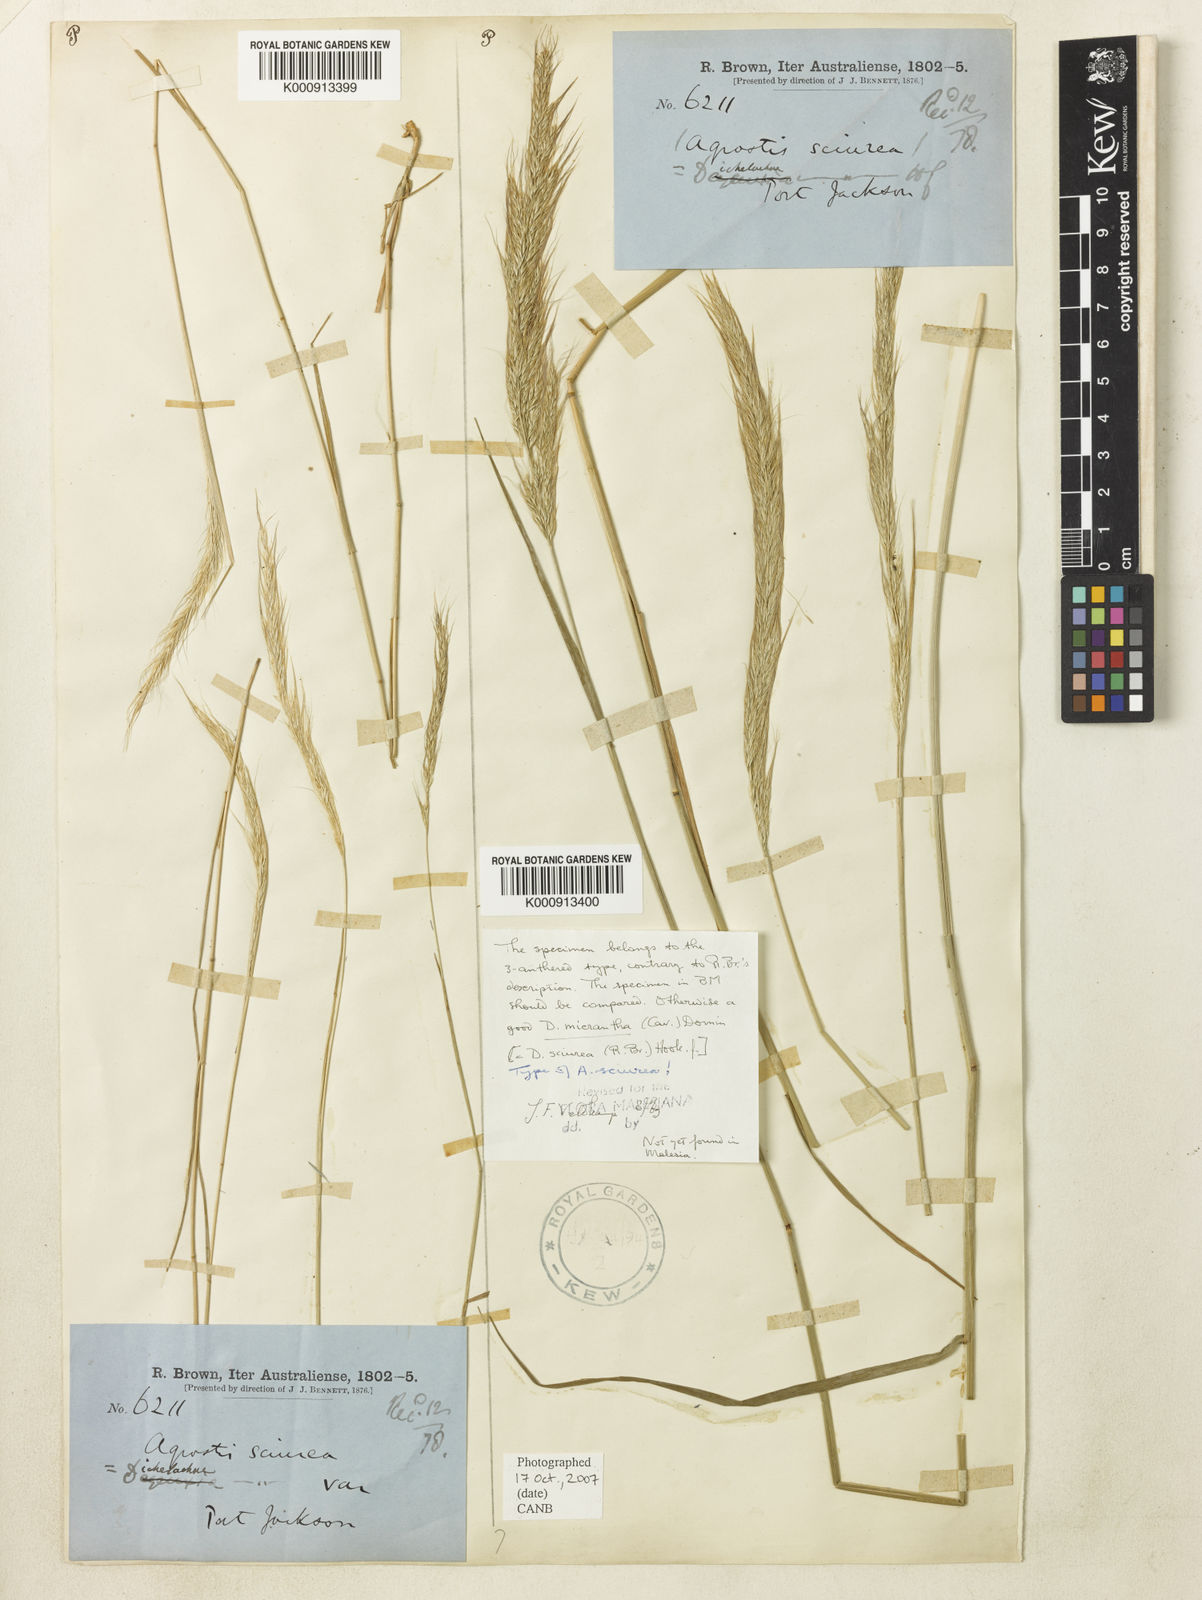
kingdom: Plantae
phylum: Tracheophyta
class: Liliopsida
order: Poales
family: Poaceae
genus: Dichelachne
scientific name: Dichelachne micrantha
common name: Plumegrass
